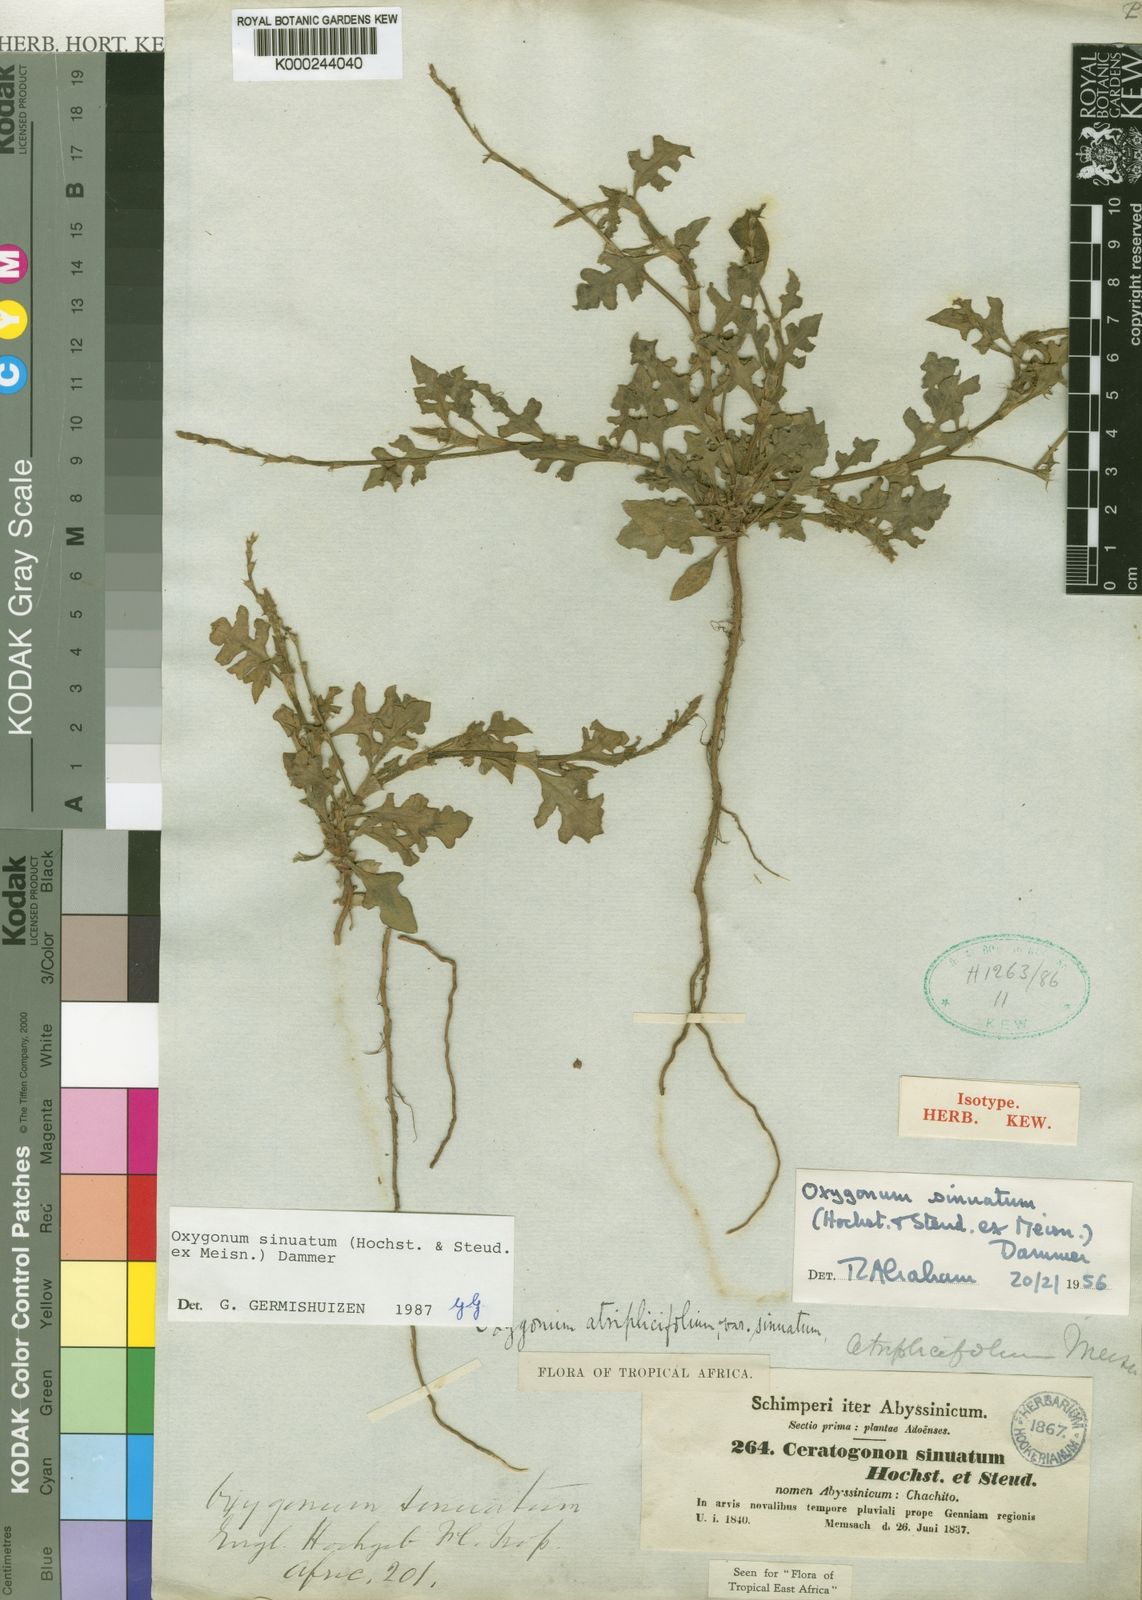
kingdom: Plantae
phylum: Tracheophyta
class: Magnoliopsida
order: Caryophyllales
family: Polygonaceae
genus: Oxygonum
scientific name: Oxygonum sinuatum
